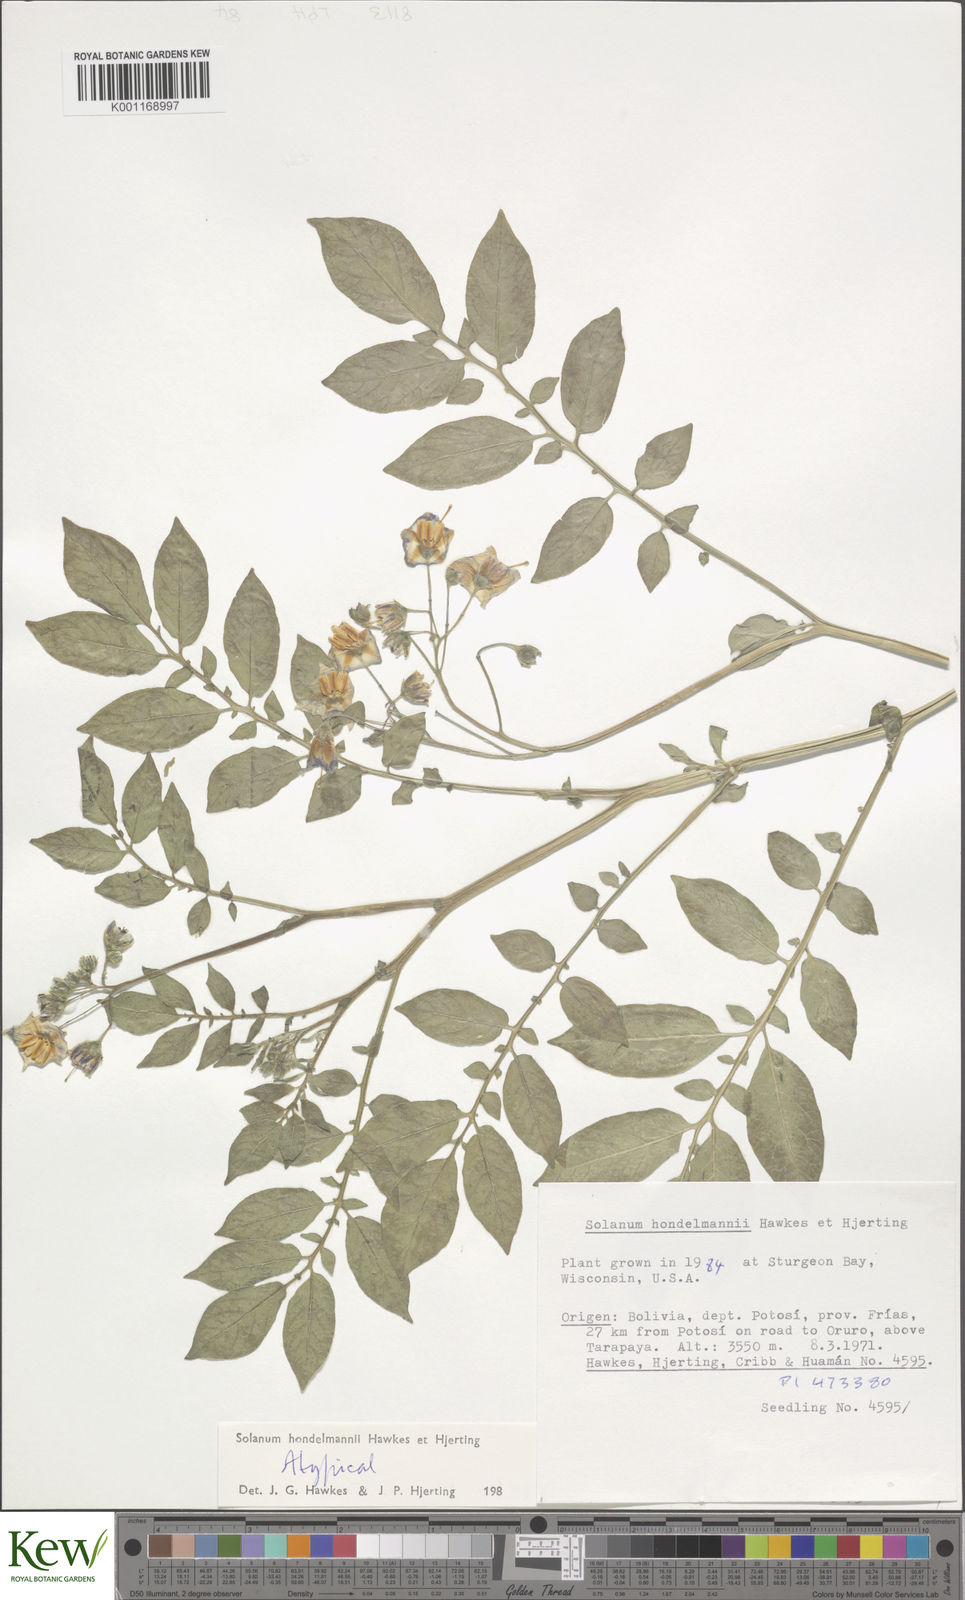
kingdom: Plantae
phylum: Tracheophyta
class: Magnoliopsida
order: Solanales
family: Solanaceae
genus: Solanum
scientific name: Solanum brevicaule
